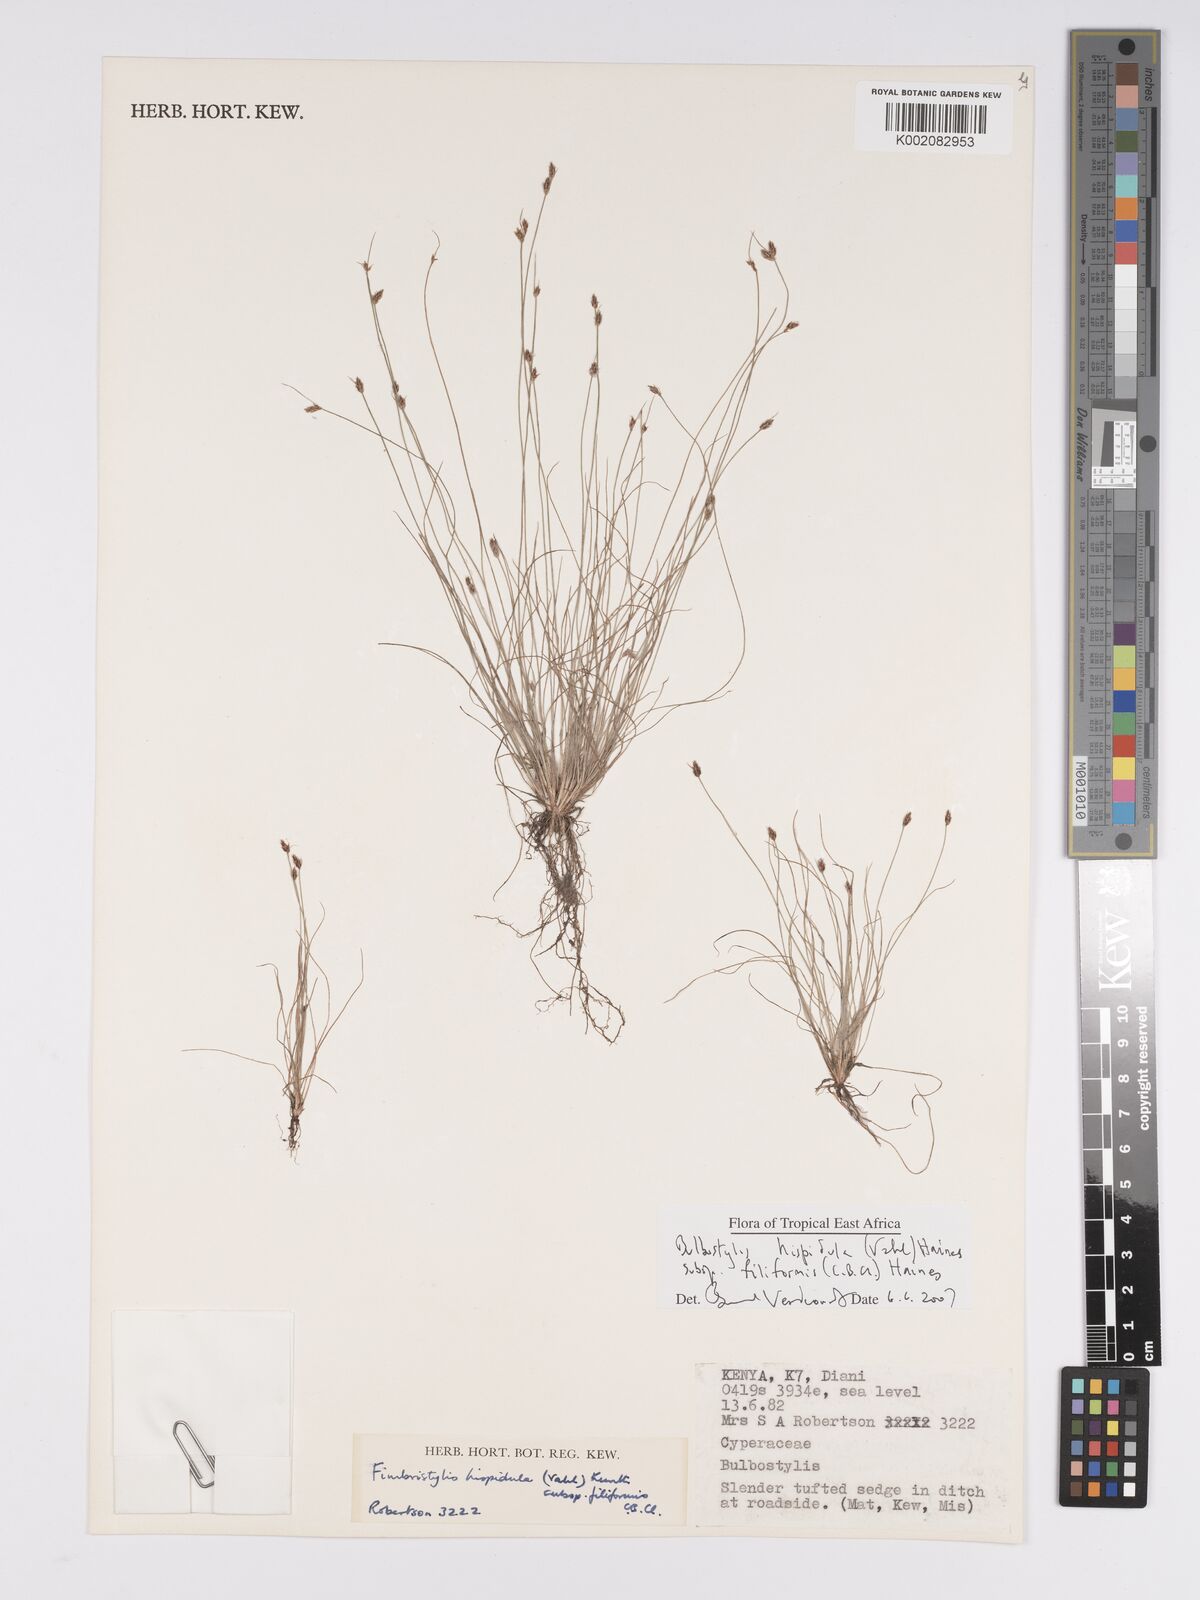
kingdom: Plantae
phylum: Tracheophyta
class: Liliopsida
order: Poales
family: Cyperaceae
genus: Bulbostylis
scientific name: Bulbostylis hispidula
